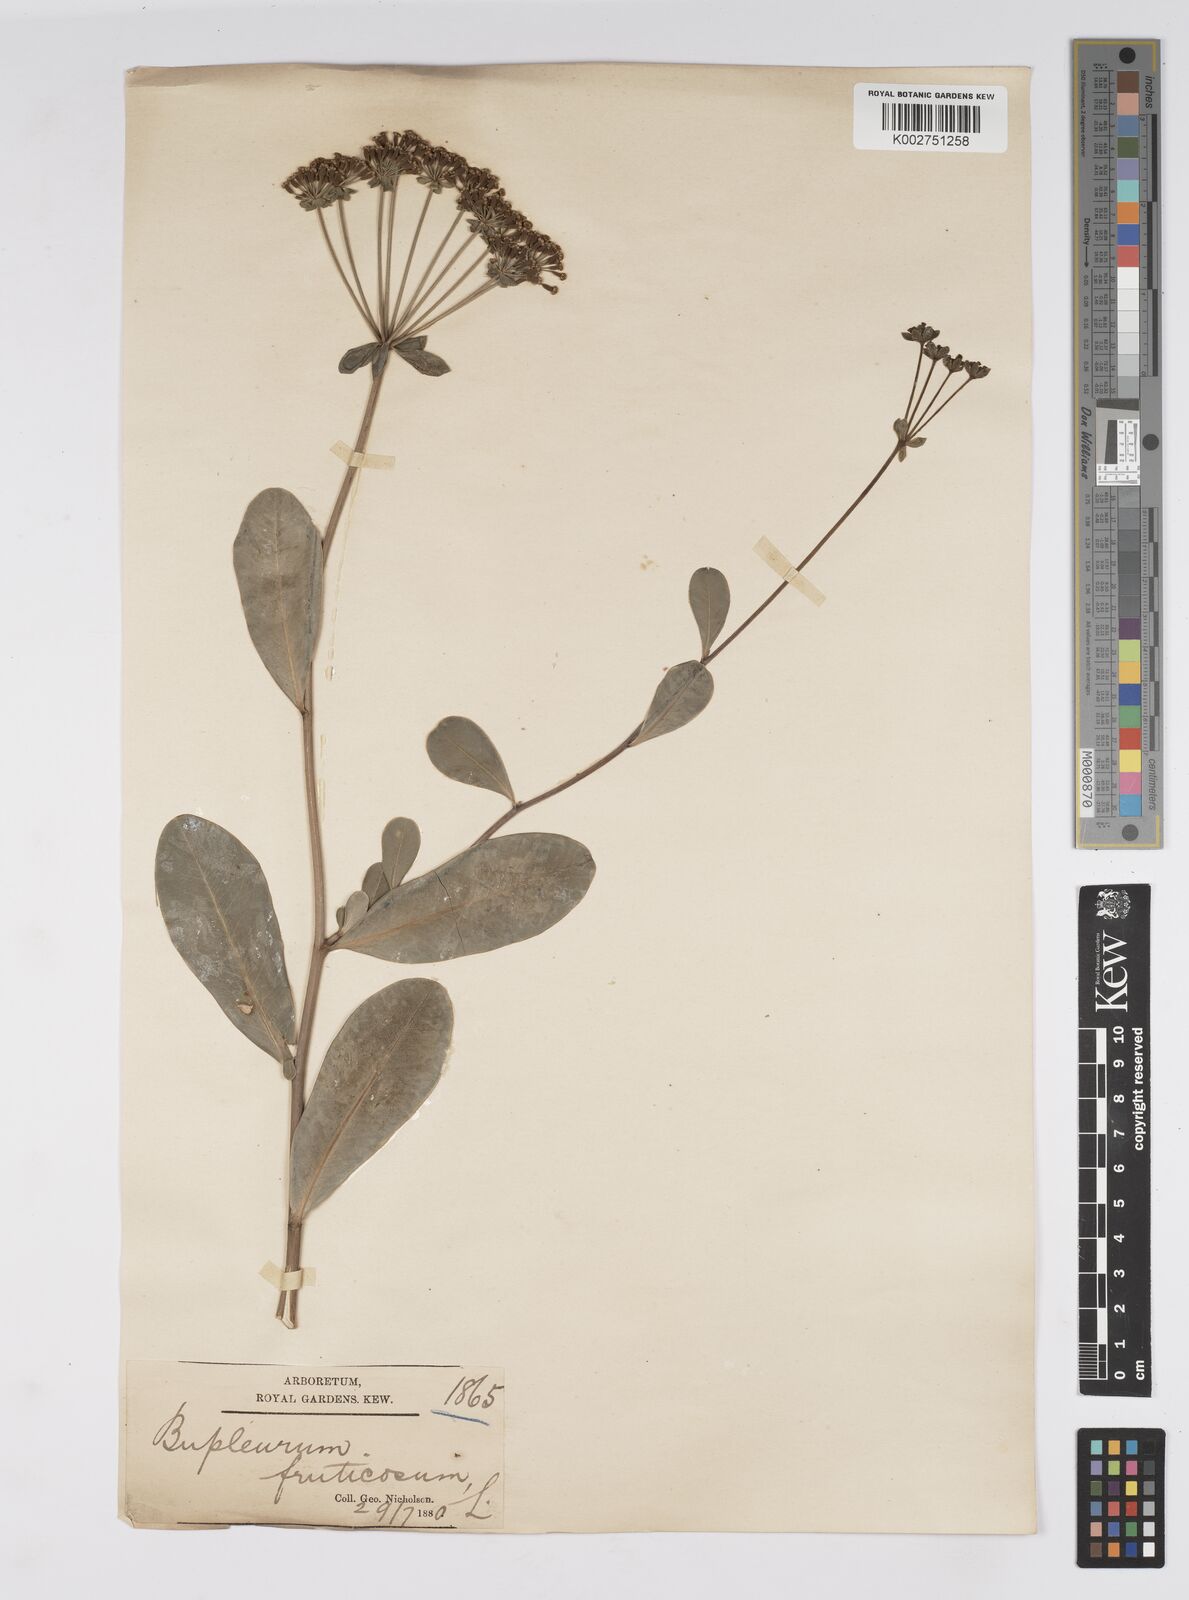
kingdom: Plantae
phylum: Tracheophyta
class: Magnoliopsida
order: Apiales
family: Apiaceae
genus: Bupleurum
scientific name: Bupleurum fruticosum
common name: Shrubby hare's-ear
